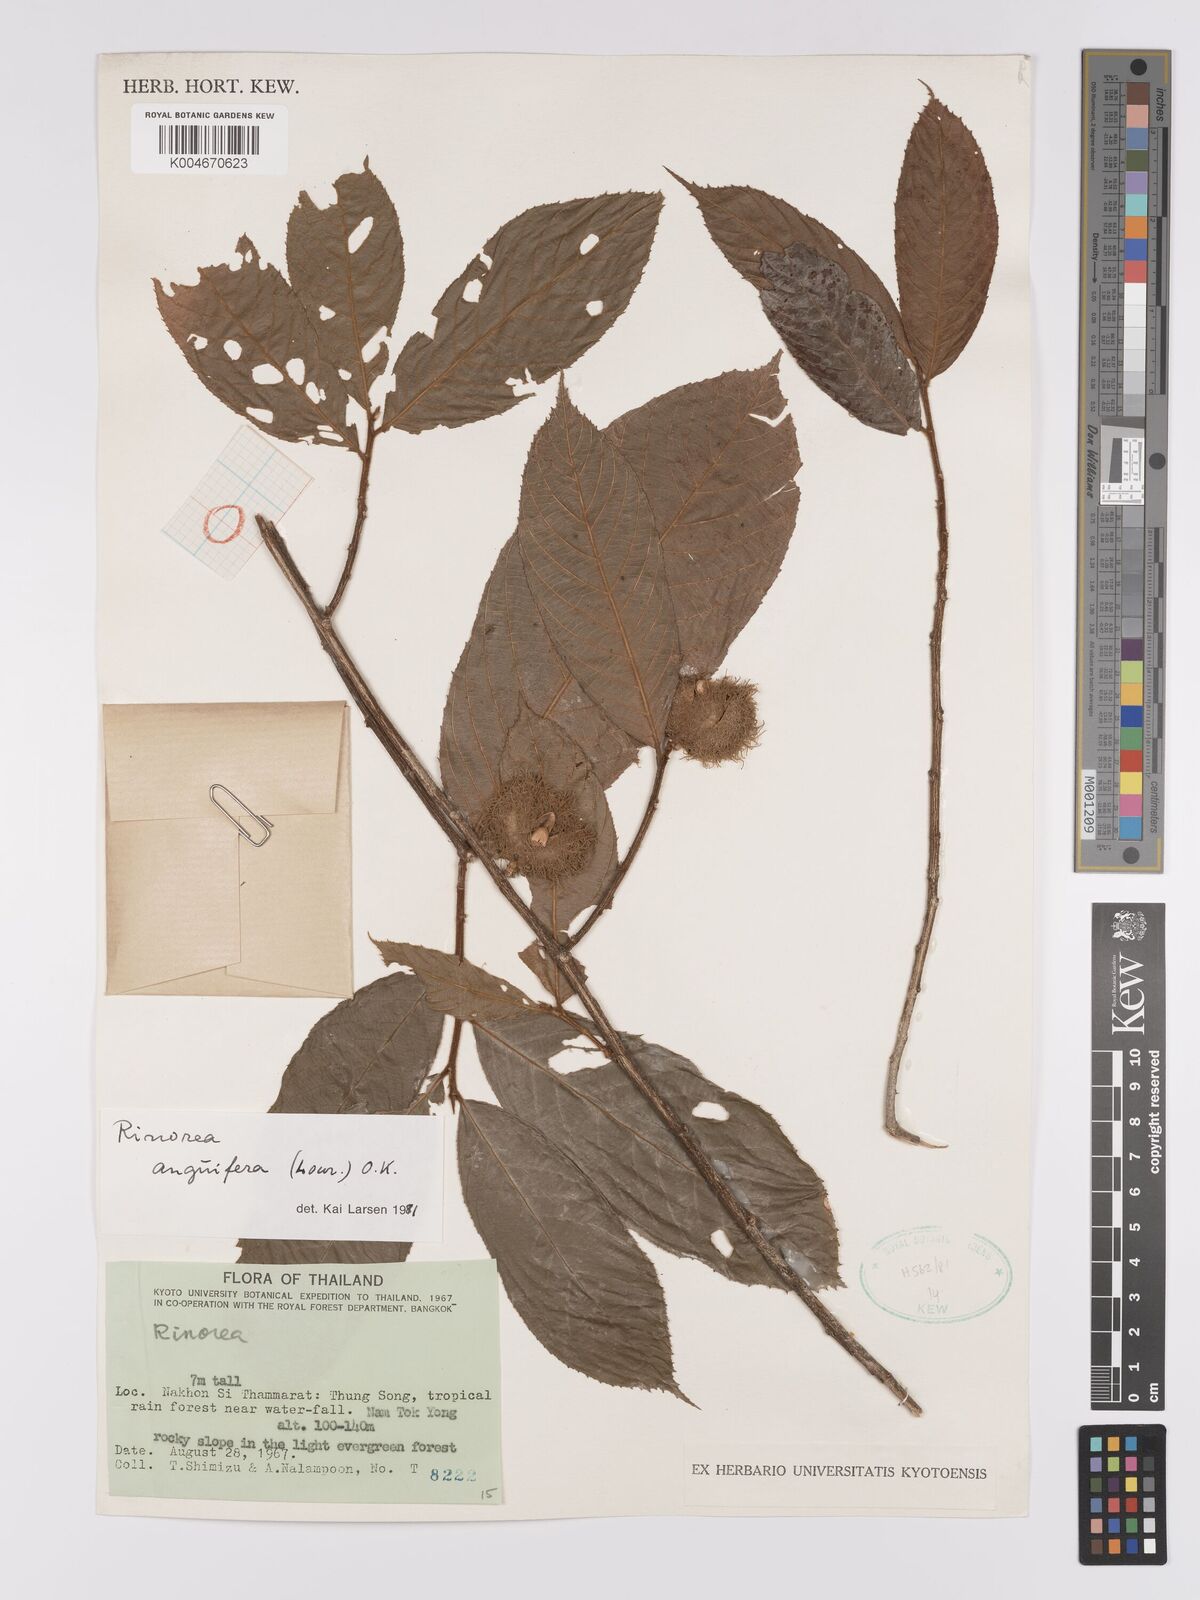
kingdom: Plantae
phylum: Tracheophyta
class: Magnoliopsida
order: Malpighiales
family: Violaceae
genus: Rinorea
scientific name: Rinorea anguifera
